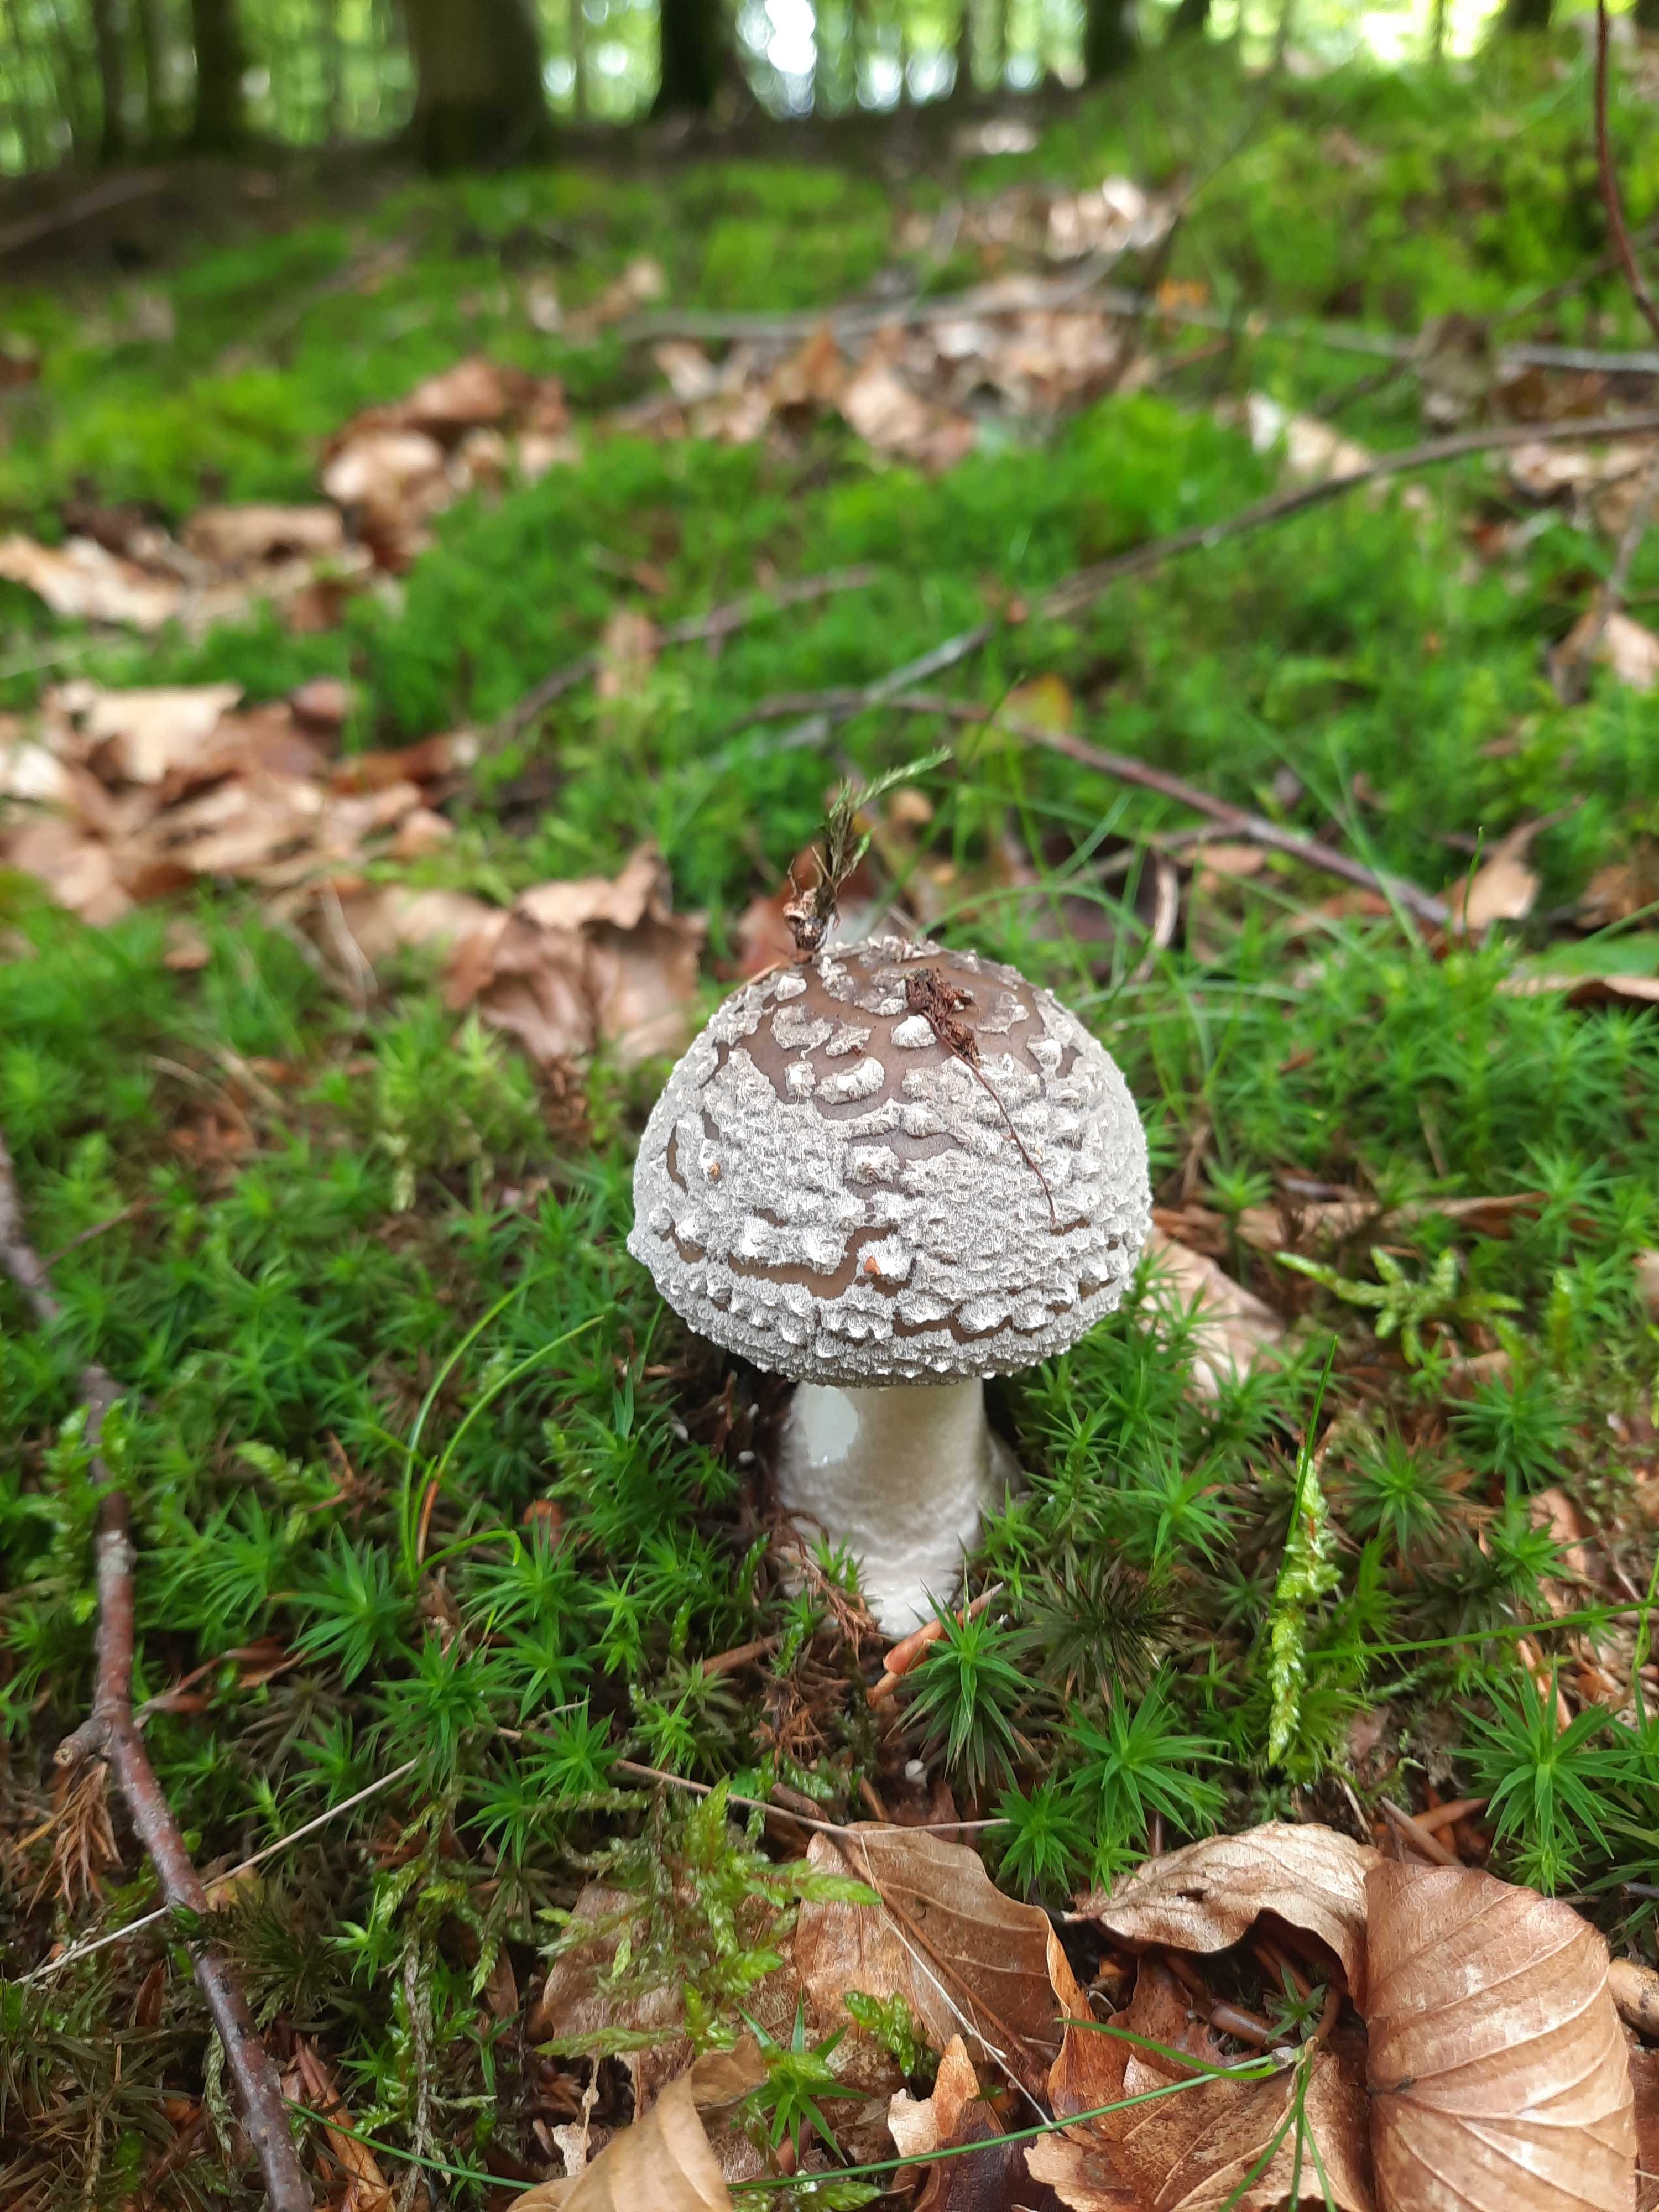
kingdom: Fungi
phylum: Basidiomycota
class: Agaricomycetes
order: Agaricales
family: Amanitaceae
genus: Amanita
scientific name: Amanita
